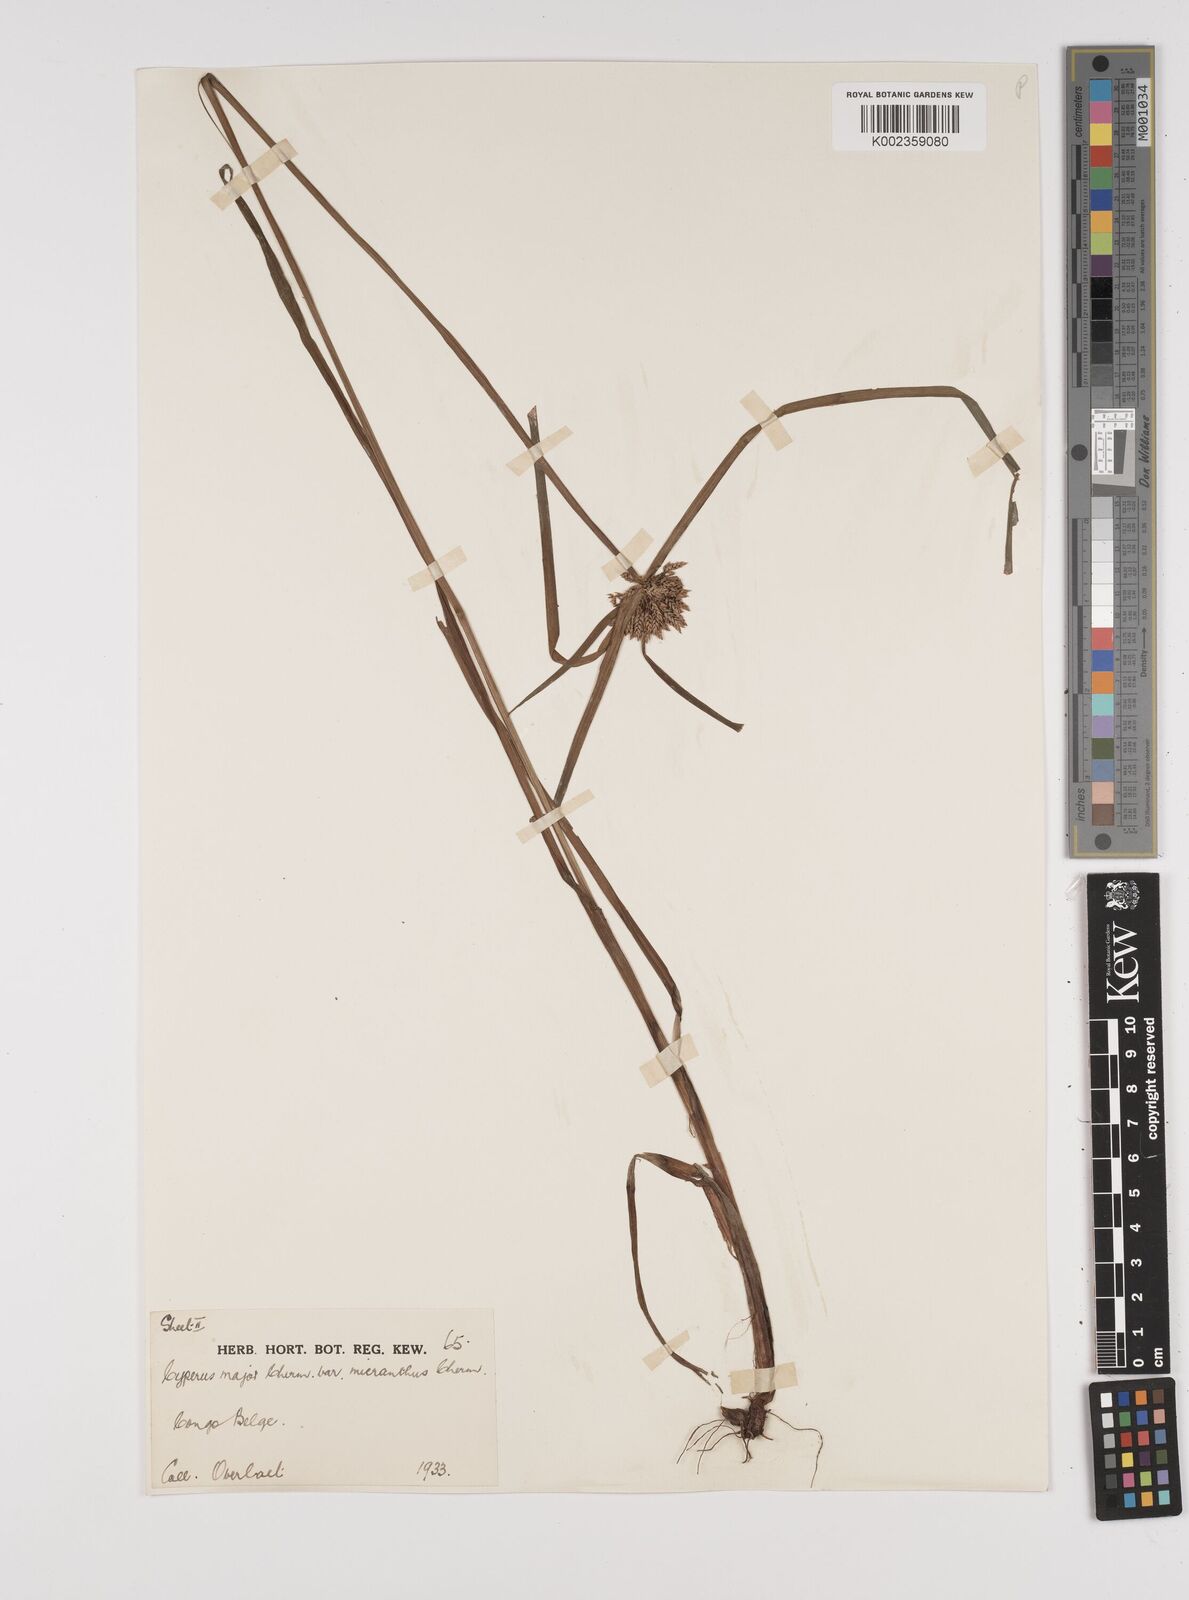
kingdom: Plantae
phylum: Tracheophyta
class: Liliopsida
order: Poales
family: Cyperaceae
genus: Cyperus
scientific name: Cyperus mapanioides
